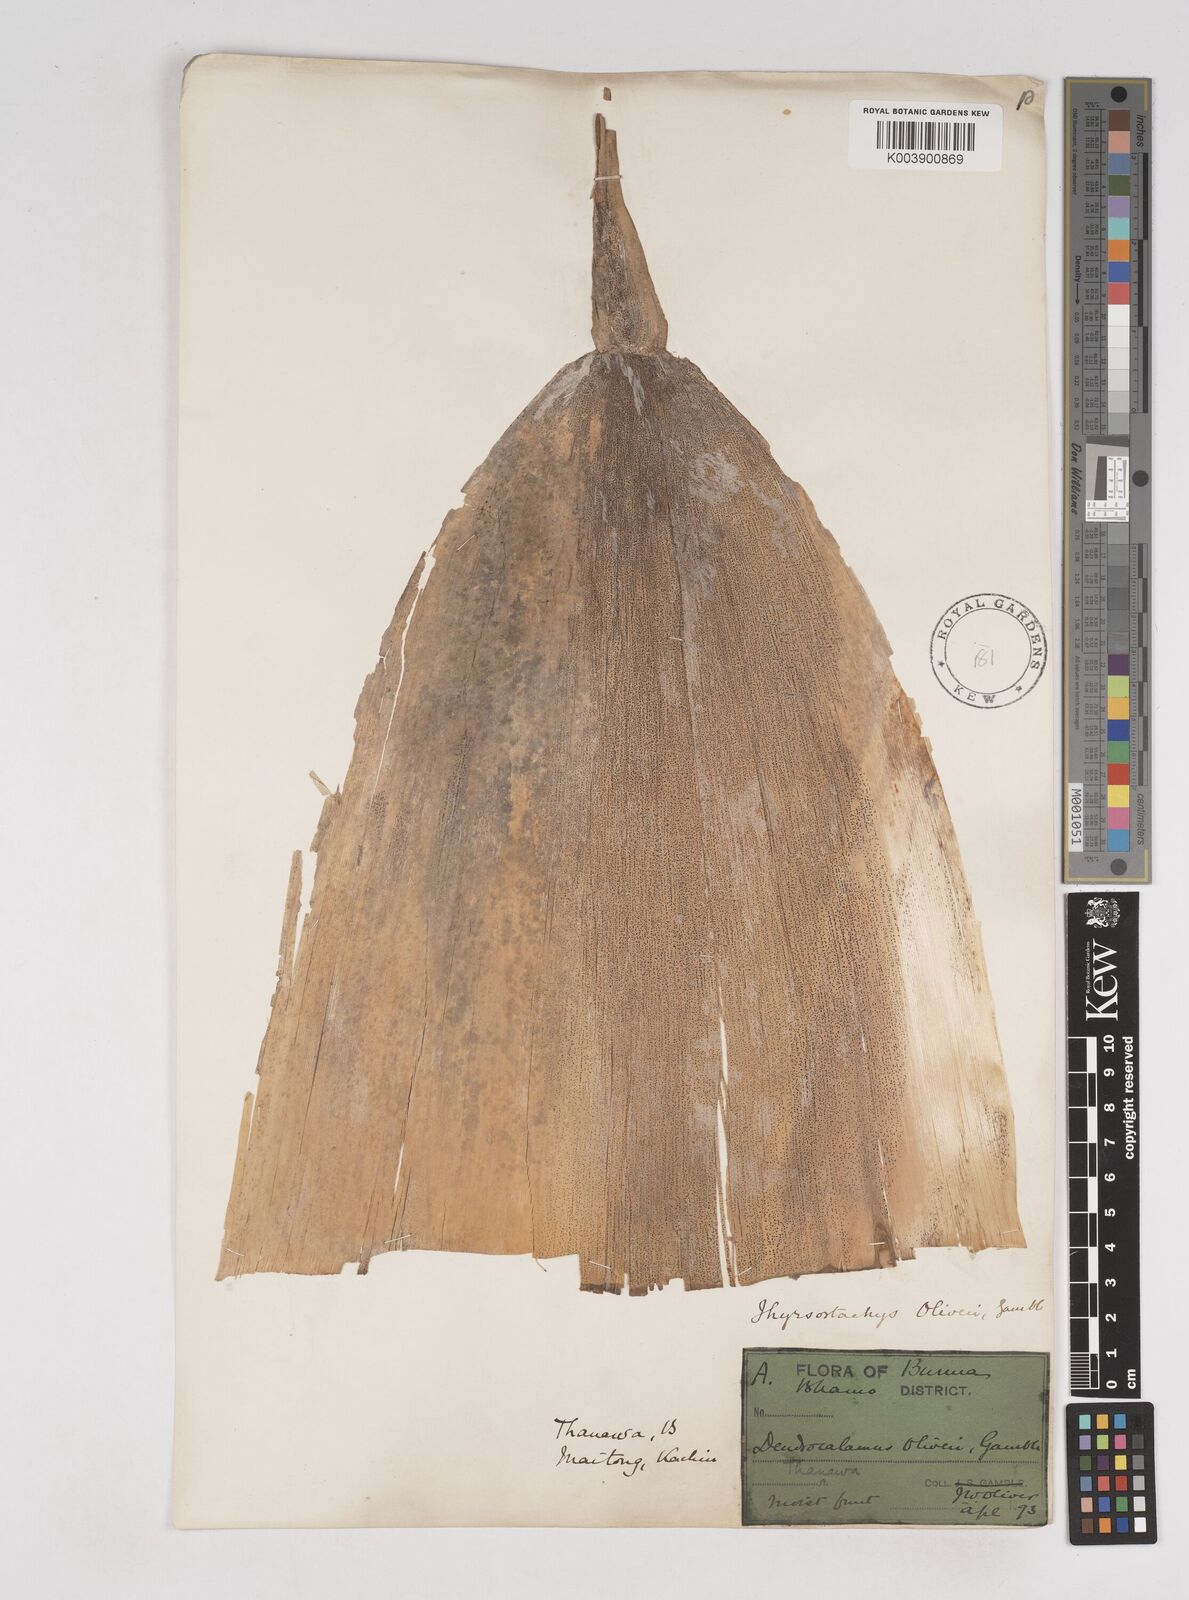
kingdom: Plantae
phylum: Tracheophyta
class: Liliopsida
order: Poales
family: Poaceae
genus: Thyrsostachys
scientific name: Thyrsostachys oliveri
